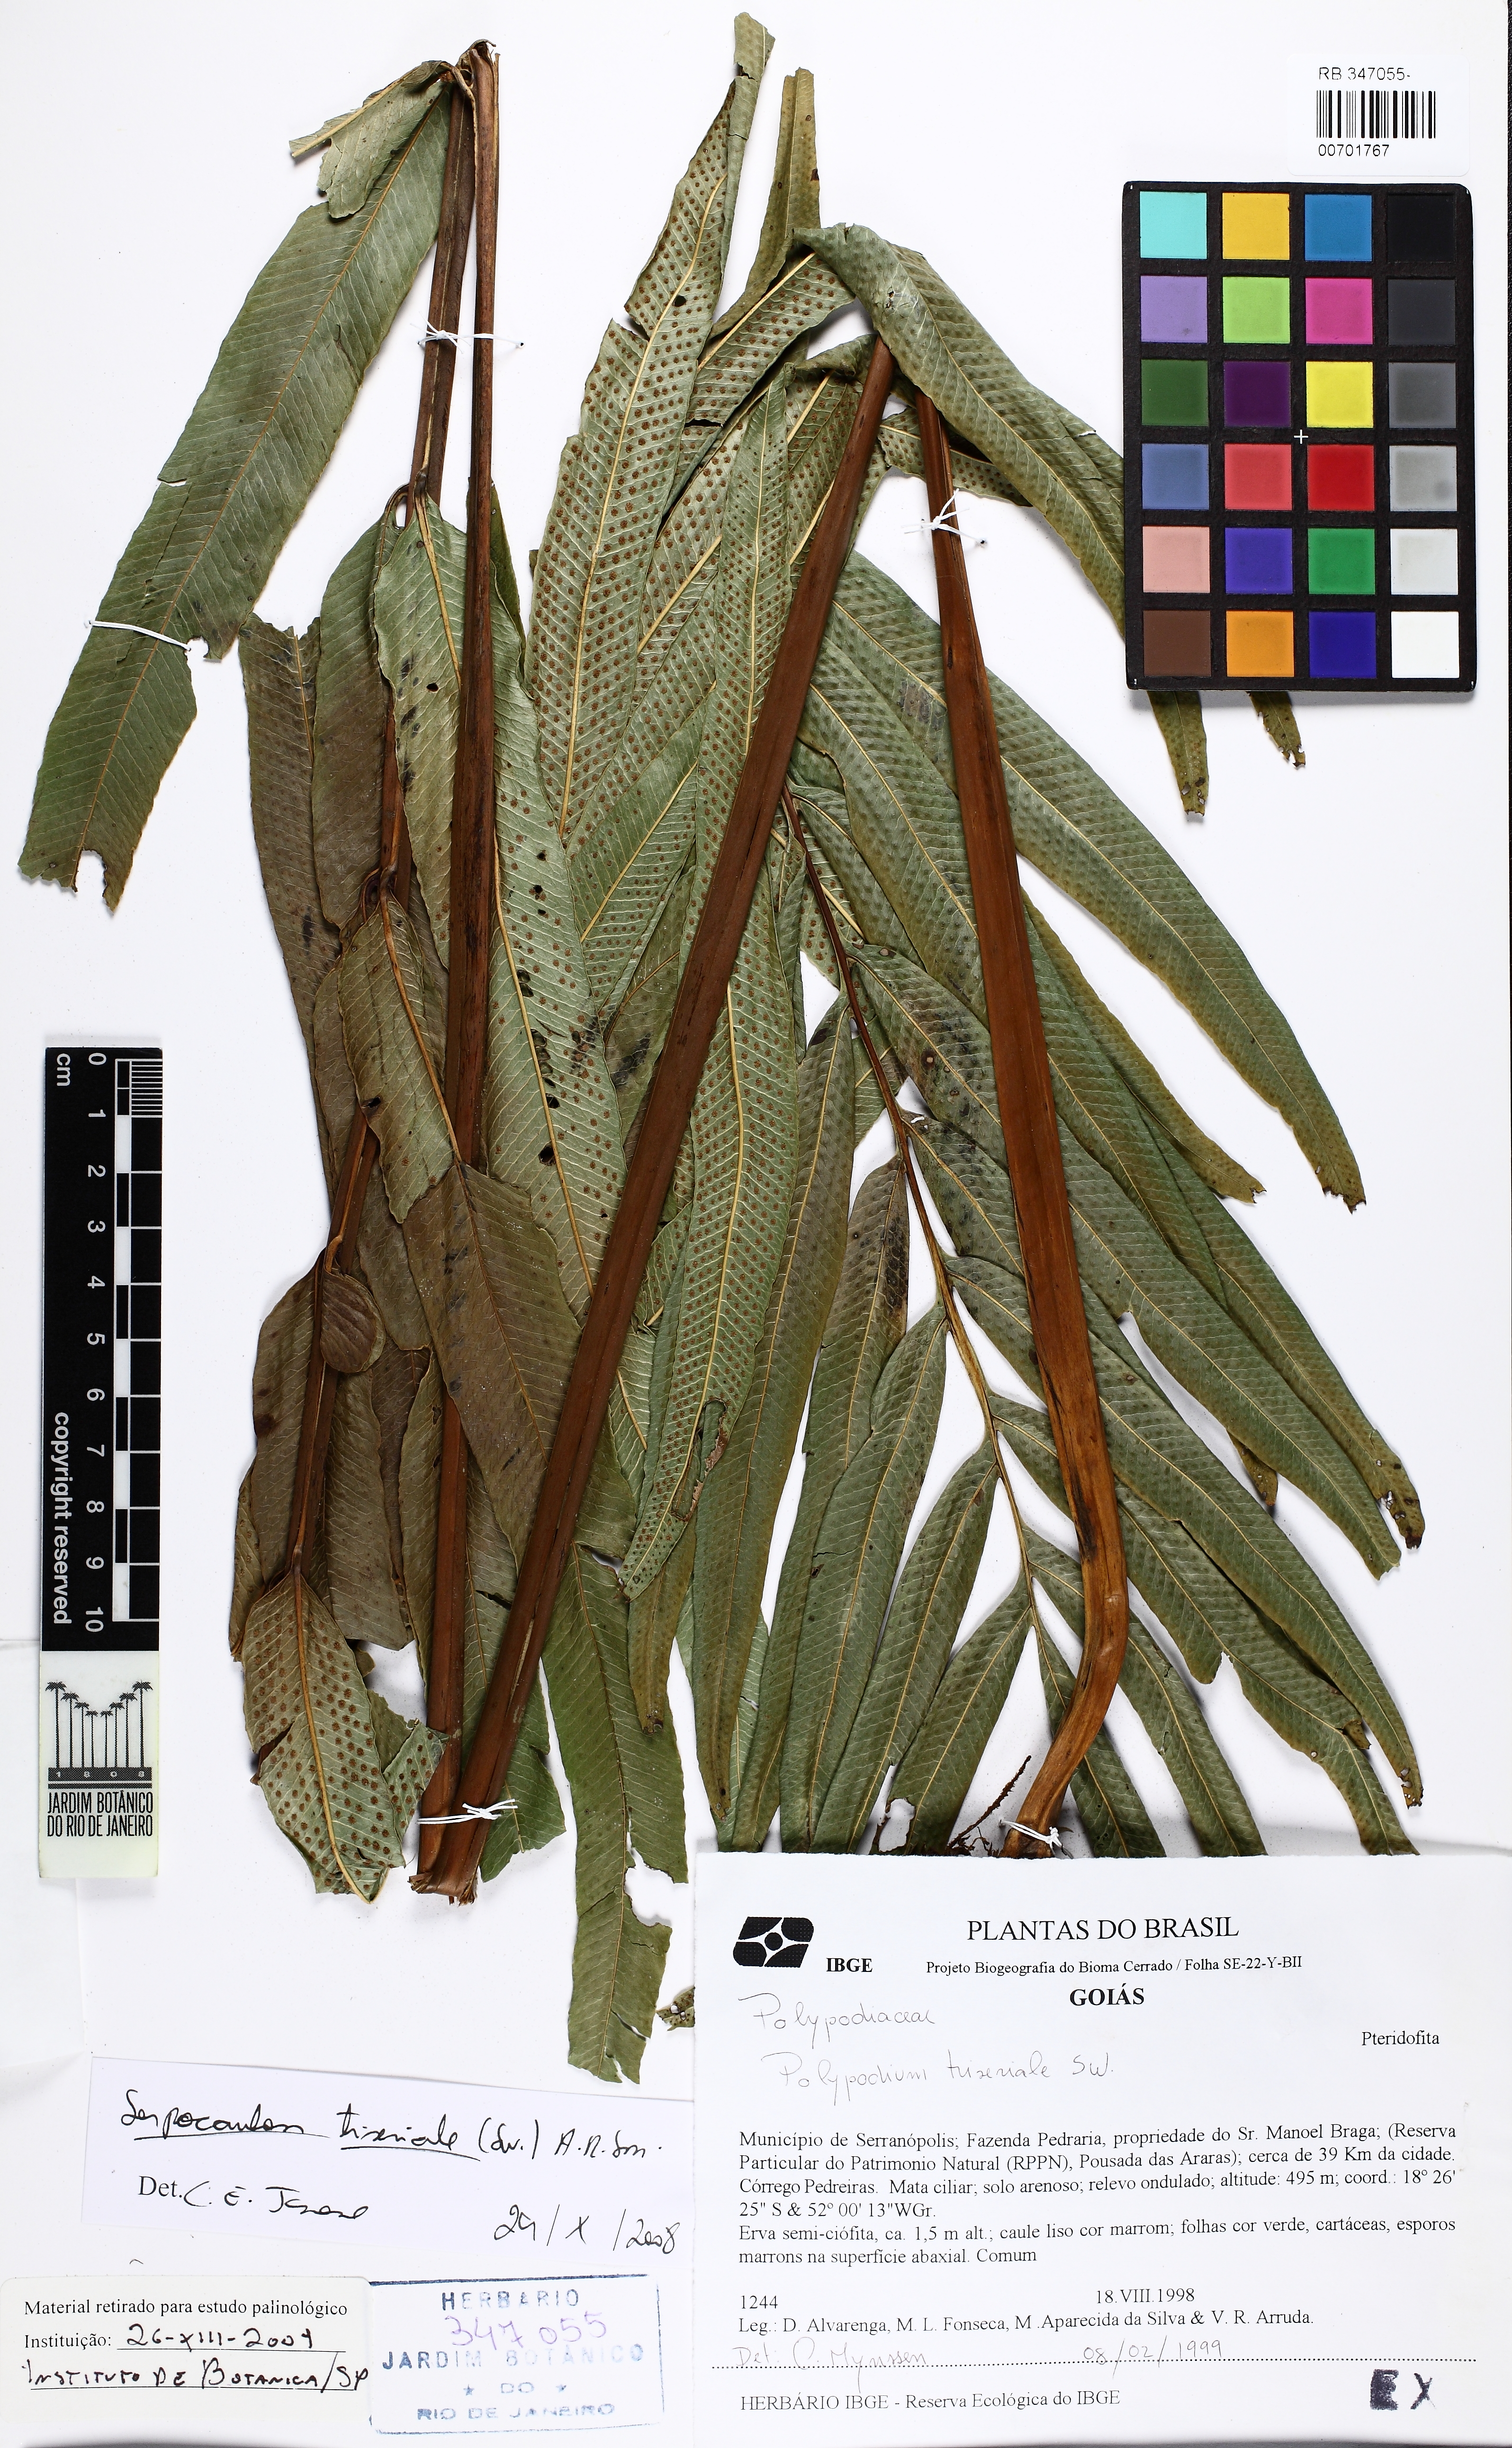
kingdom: Plantae
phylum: Tracheophyta
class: Polypodiopsida
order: Polypodiales
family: Polypodiaceae
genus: Serpocaulon
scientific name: Serpocaulon triseriale
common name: Angle-vein fern
